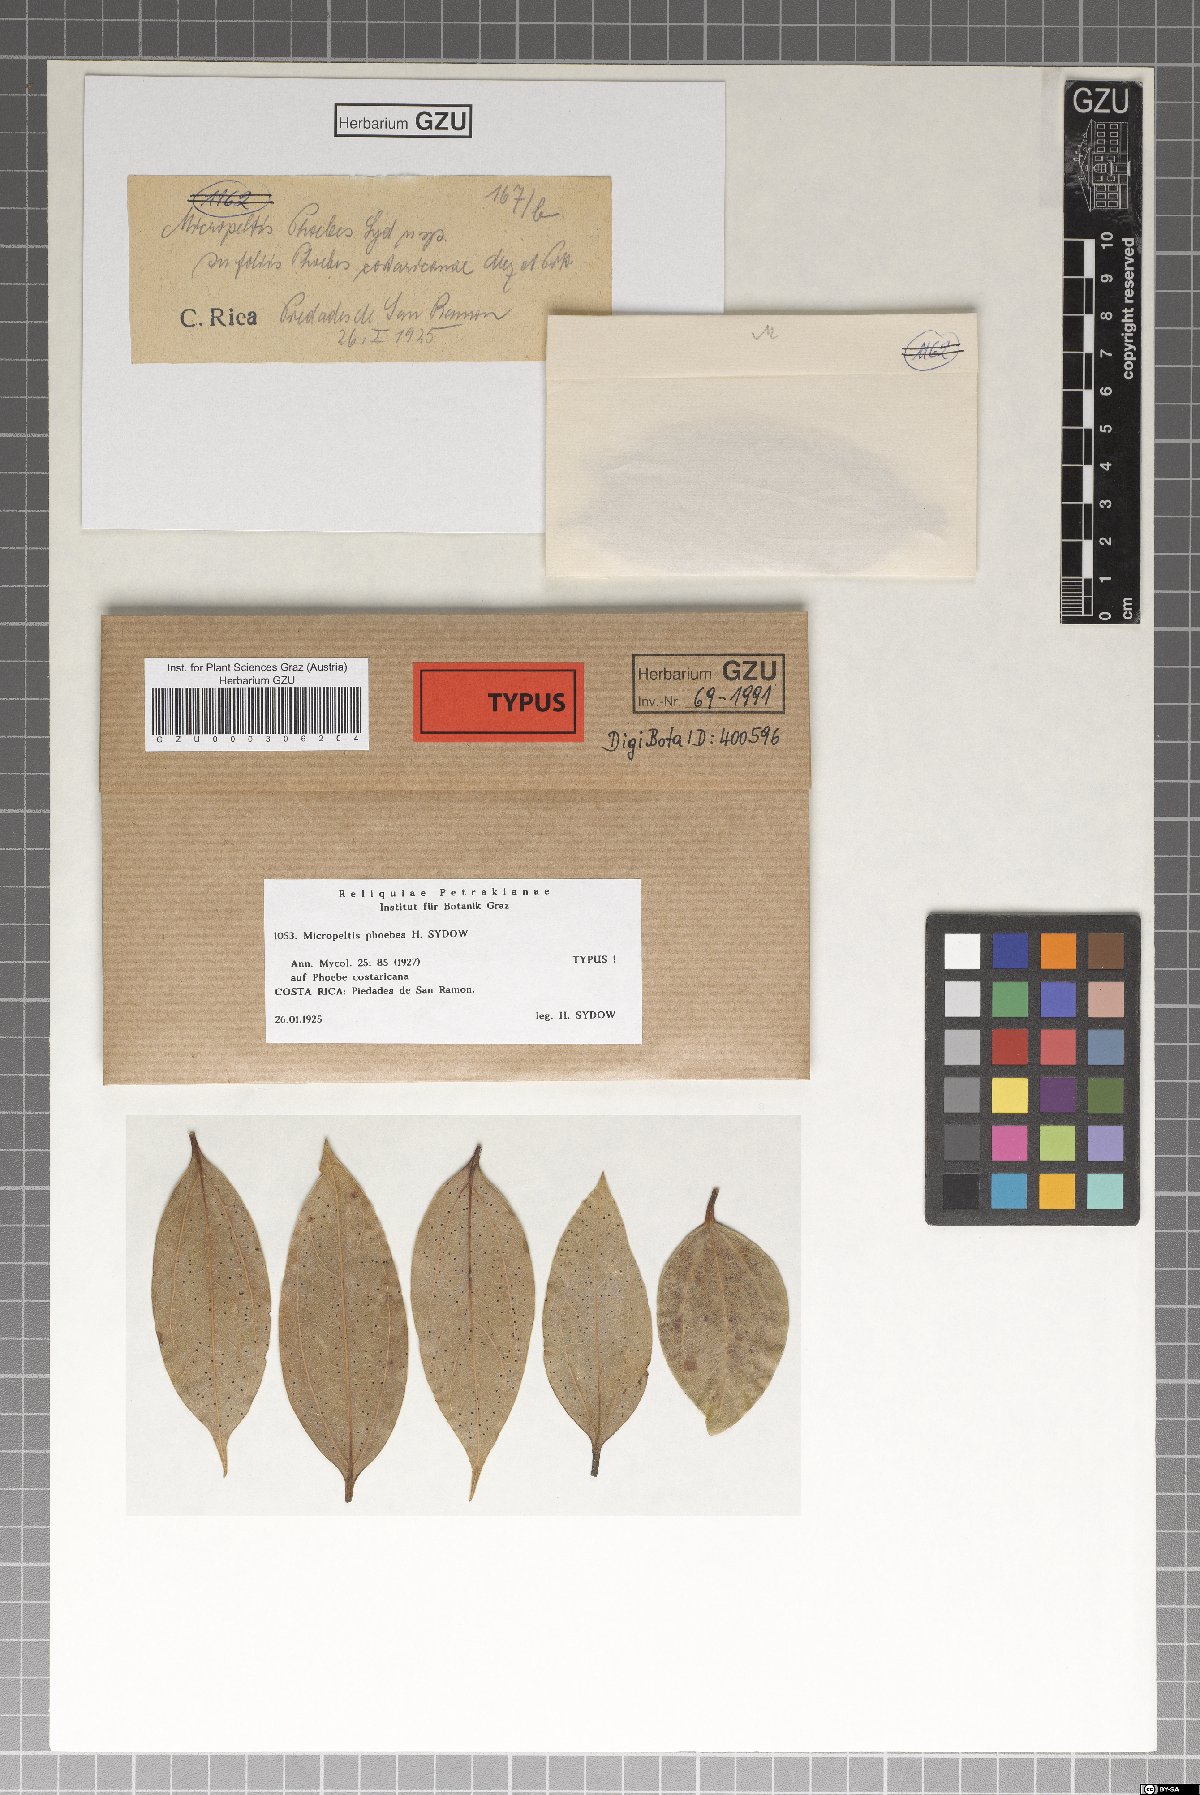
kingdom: Fungi
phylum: Ascomycota
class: Dothideomycetes
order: Microthyriales
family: Micropeltidaceae
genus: Micropeltis
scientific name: Micropeltis phoebes
